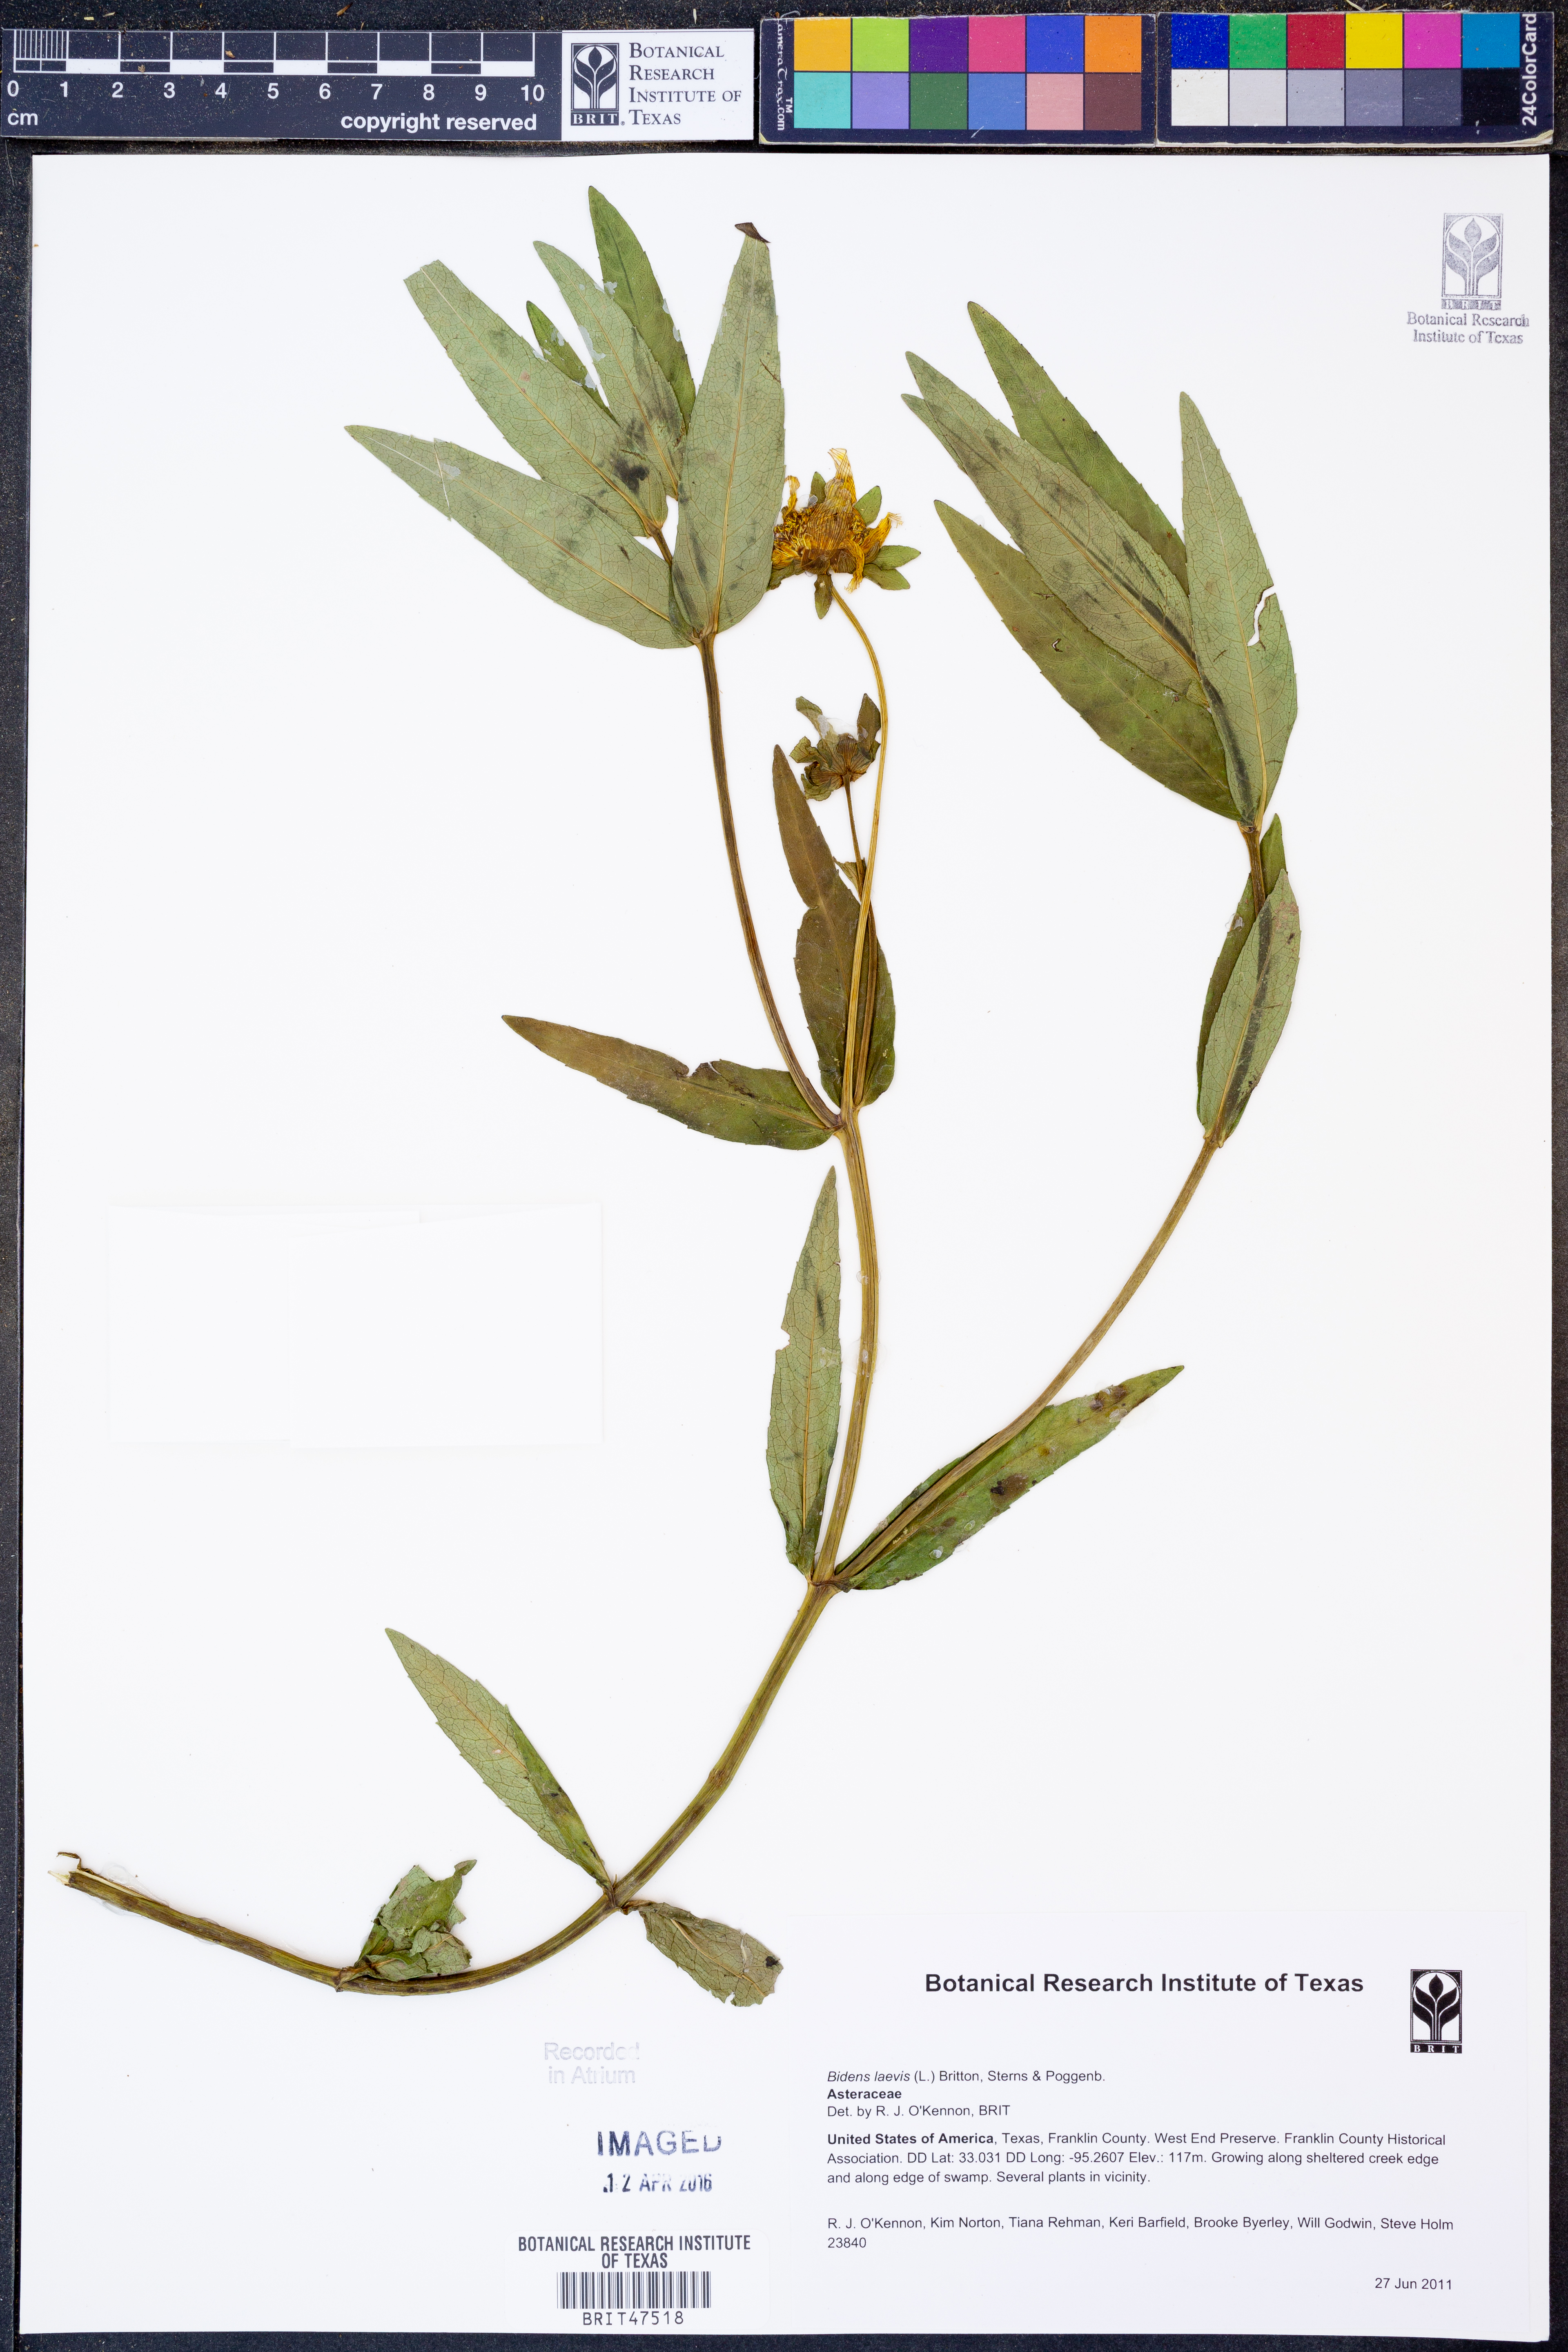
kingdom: Plantae
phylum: Tracheophyta
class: Magnoliopsida
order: Asterales
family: Asteraceae
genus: Bidens
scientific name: Bidens laevis
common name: Larger bur-marigold
